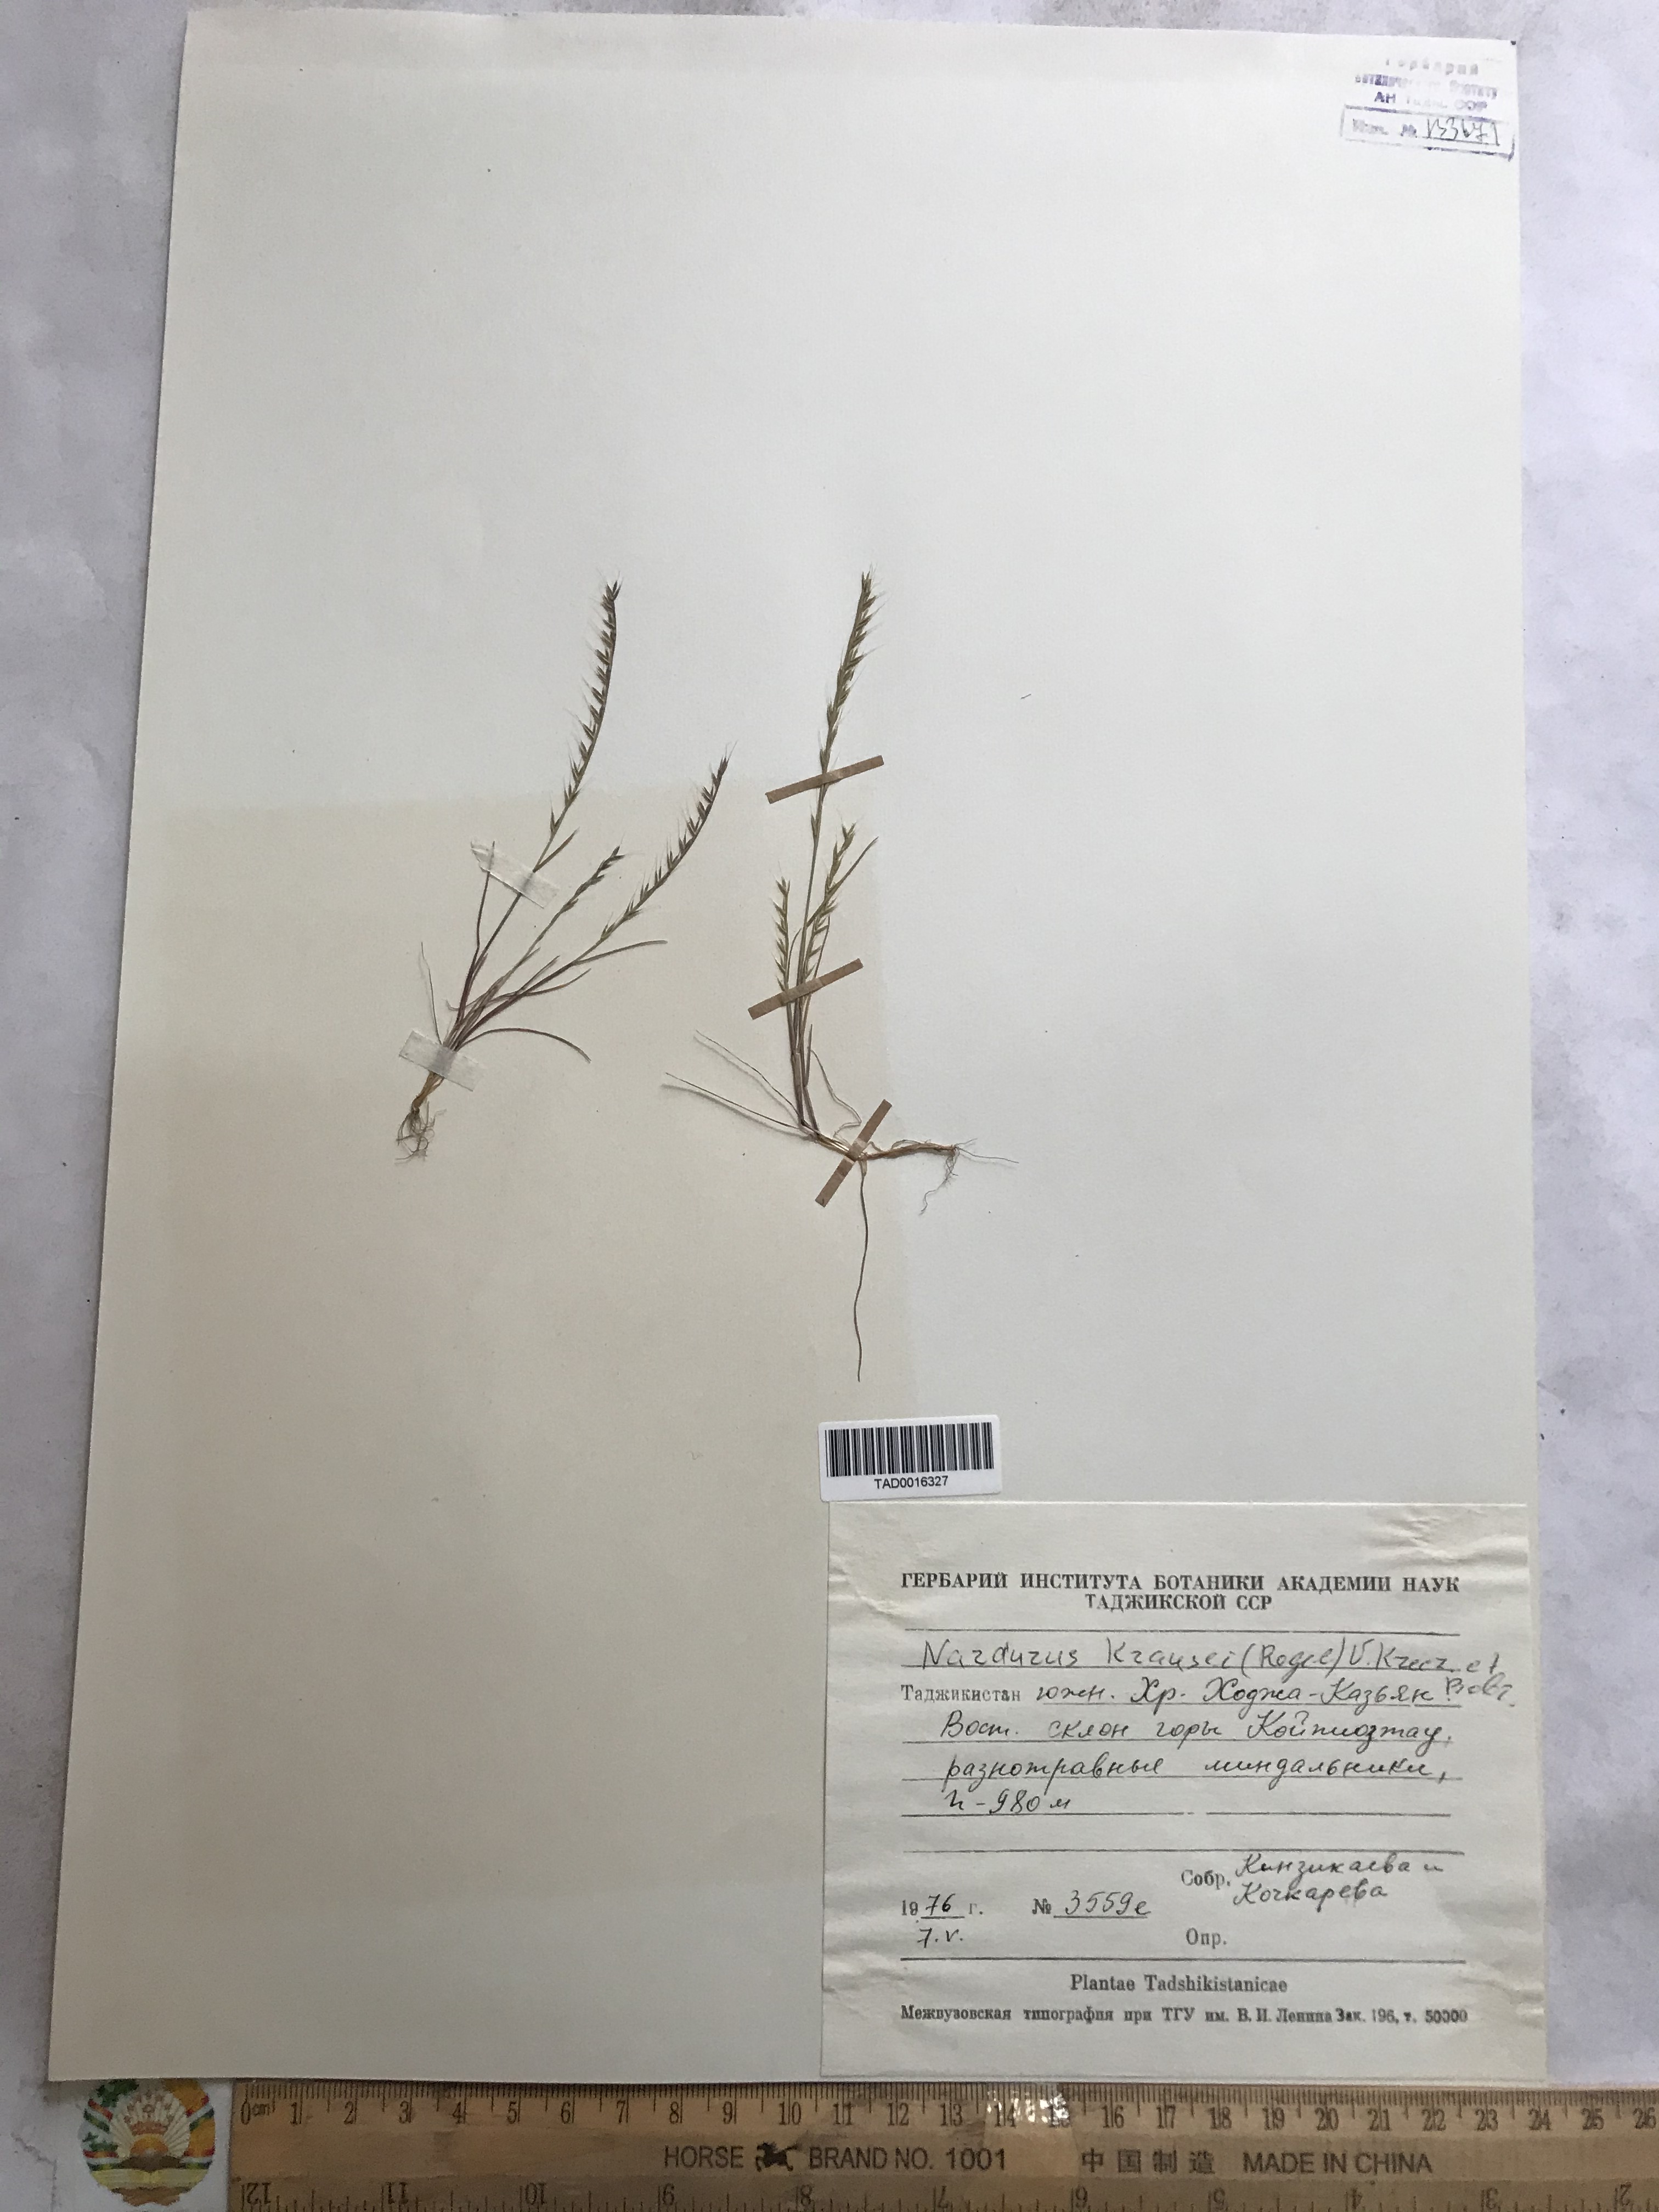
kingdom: Plantae
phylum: Tracheophyta
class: Liliopsida
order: Poales
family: Poaceae
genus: Festuca
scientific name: Festuca maritima
